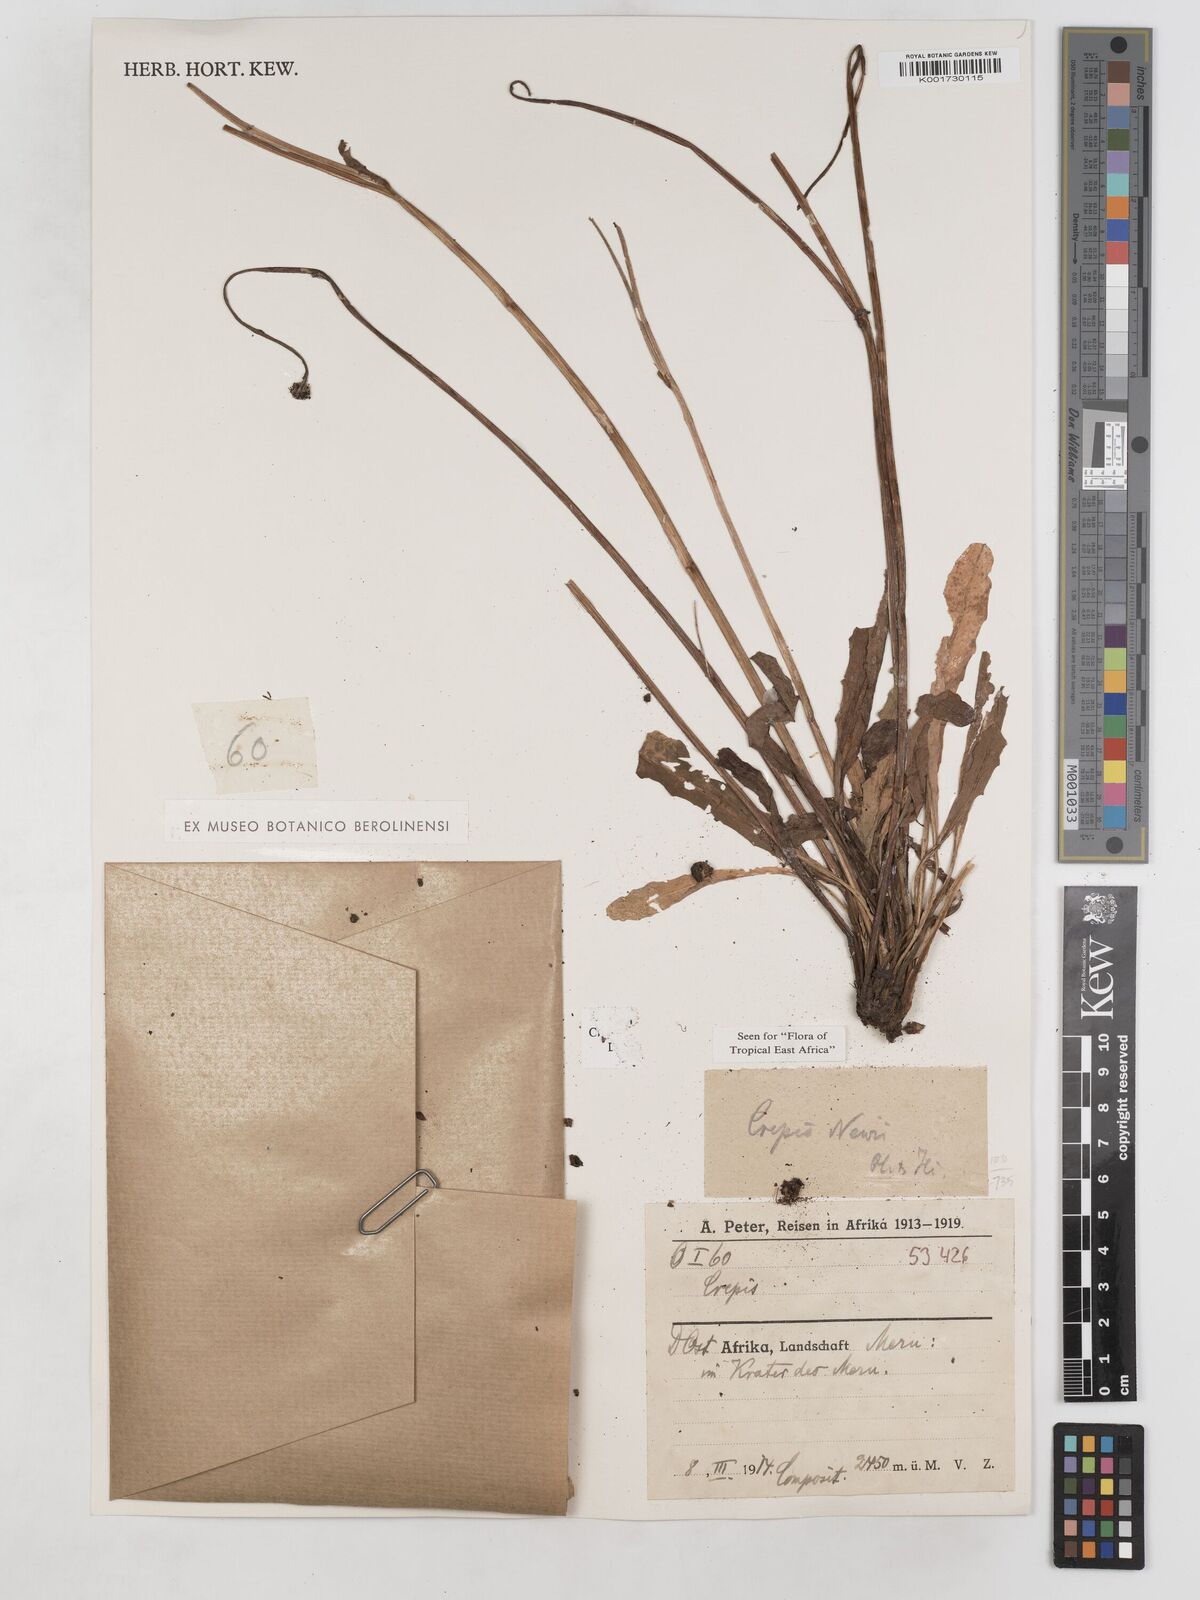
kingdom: Plantae
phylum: Tracheophyta
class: Magnoliopsida
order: Asterales
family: Asteraceae
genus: Crepis
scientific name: Crepis hypochoeridea
